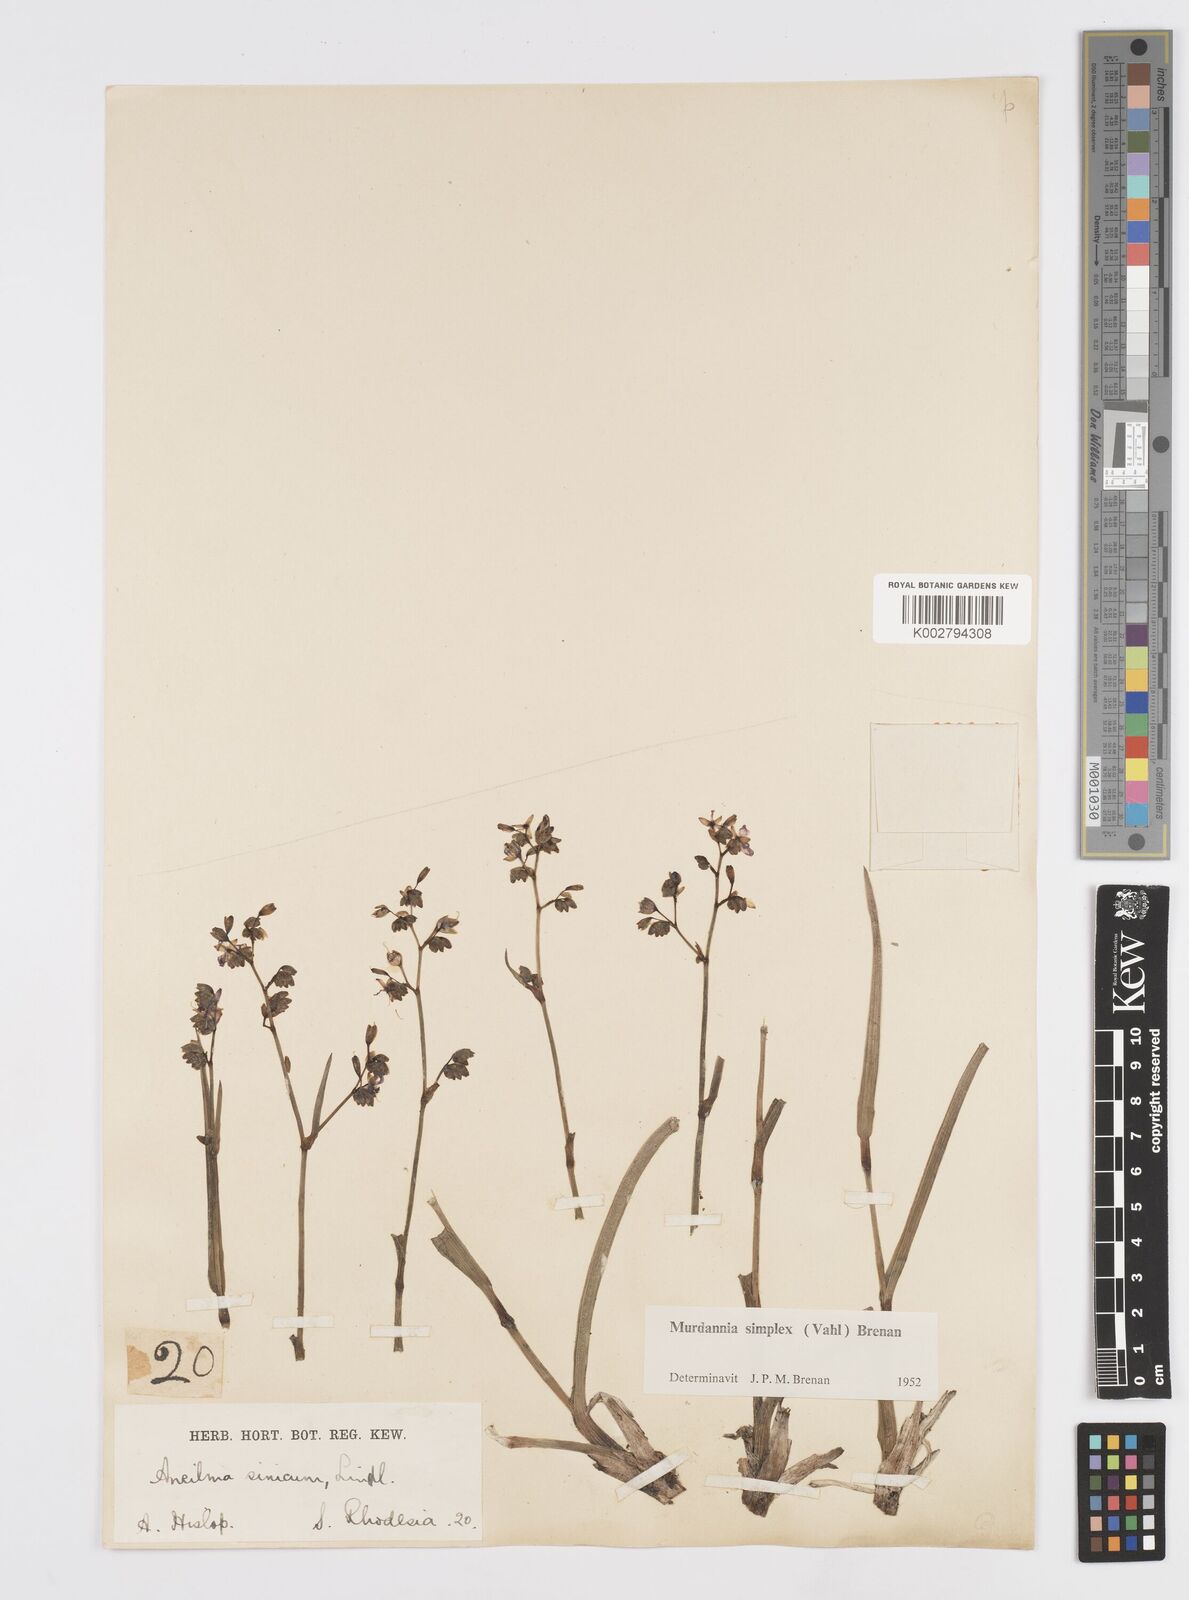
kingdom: Plantae
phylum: Tracheophyta
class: Liliopsida
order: Commelinales
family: Commelinaceae
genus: Murdannia
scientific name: Murdannia simplex
